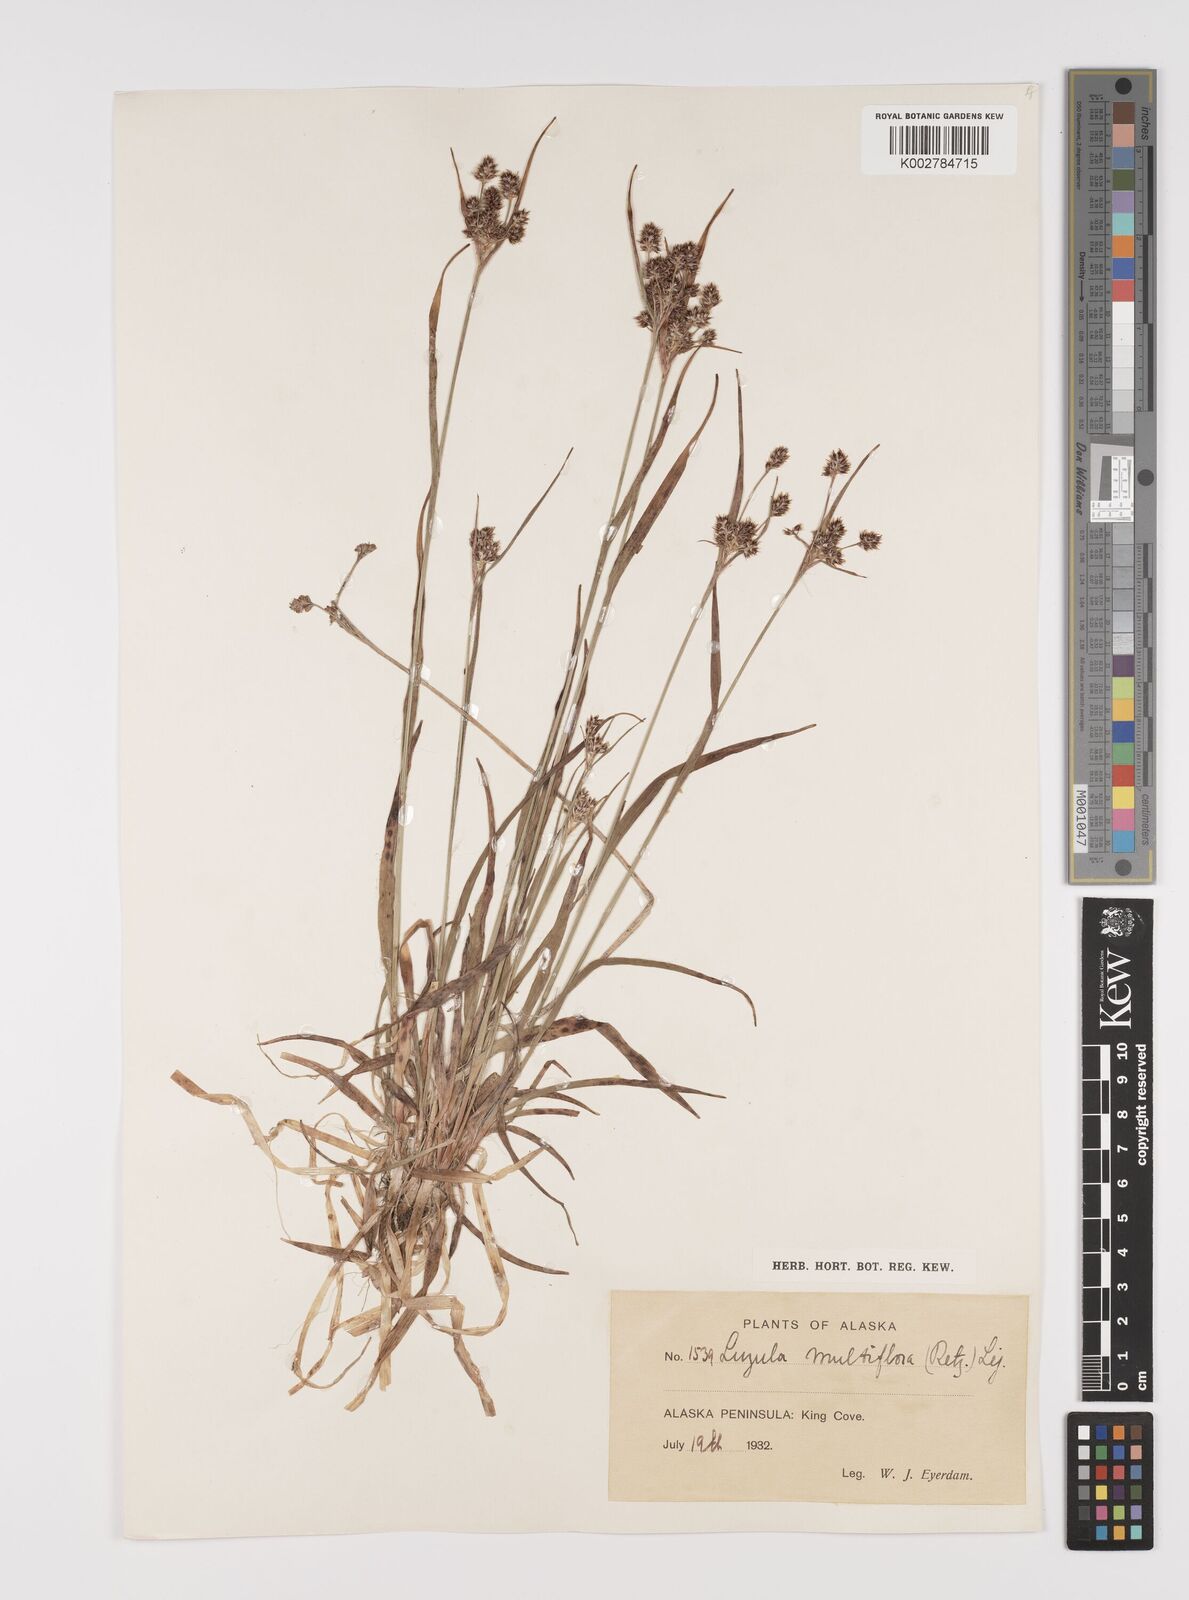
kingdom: Plantae
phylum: Tracheophyta
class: Liliopsida
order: Poales
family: Juncaceae
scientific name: Juncaceae
